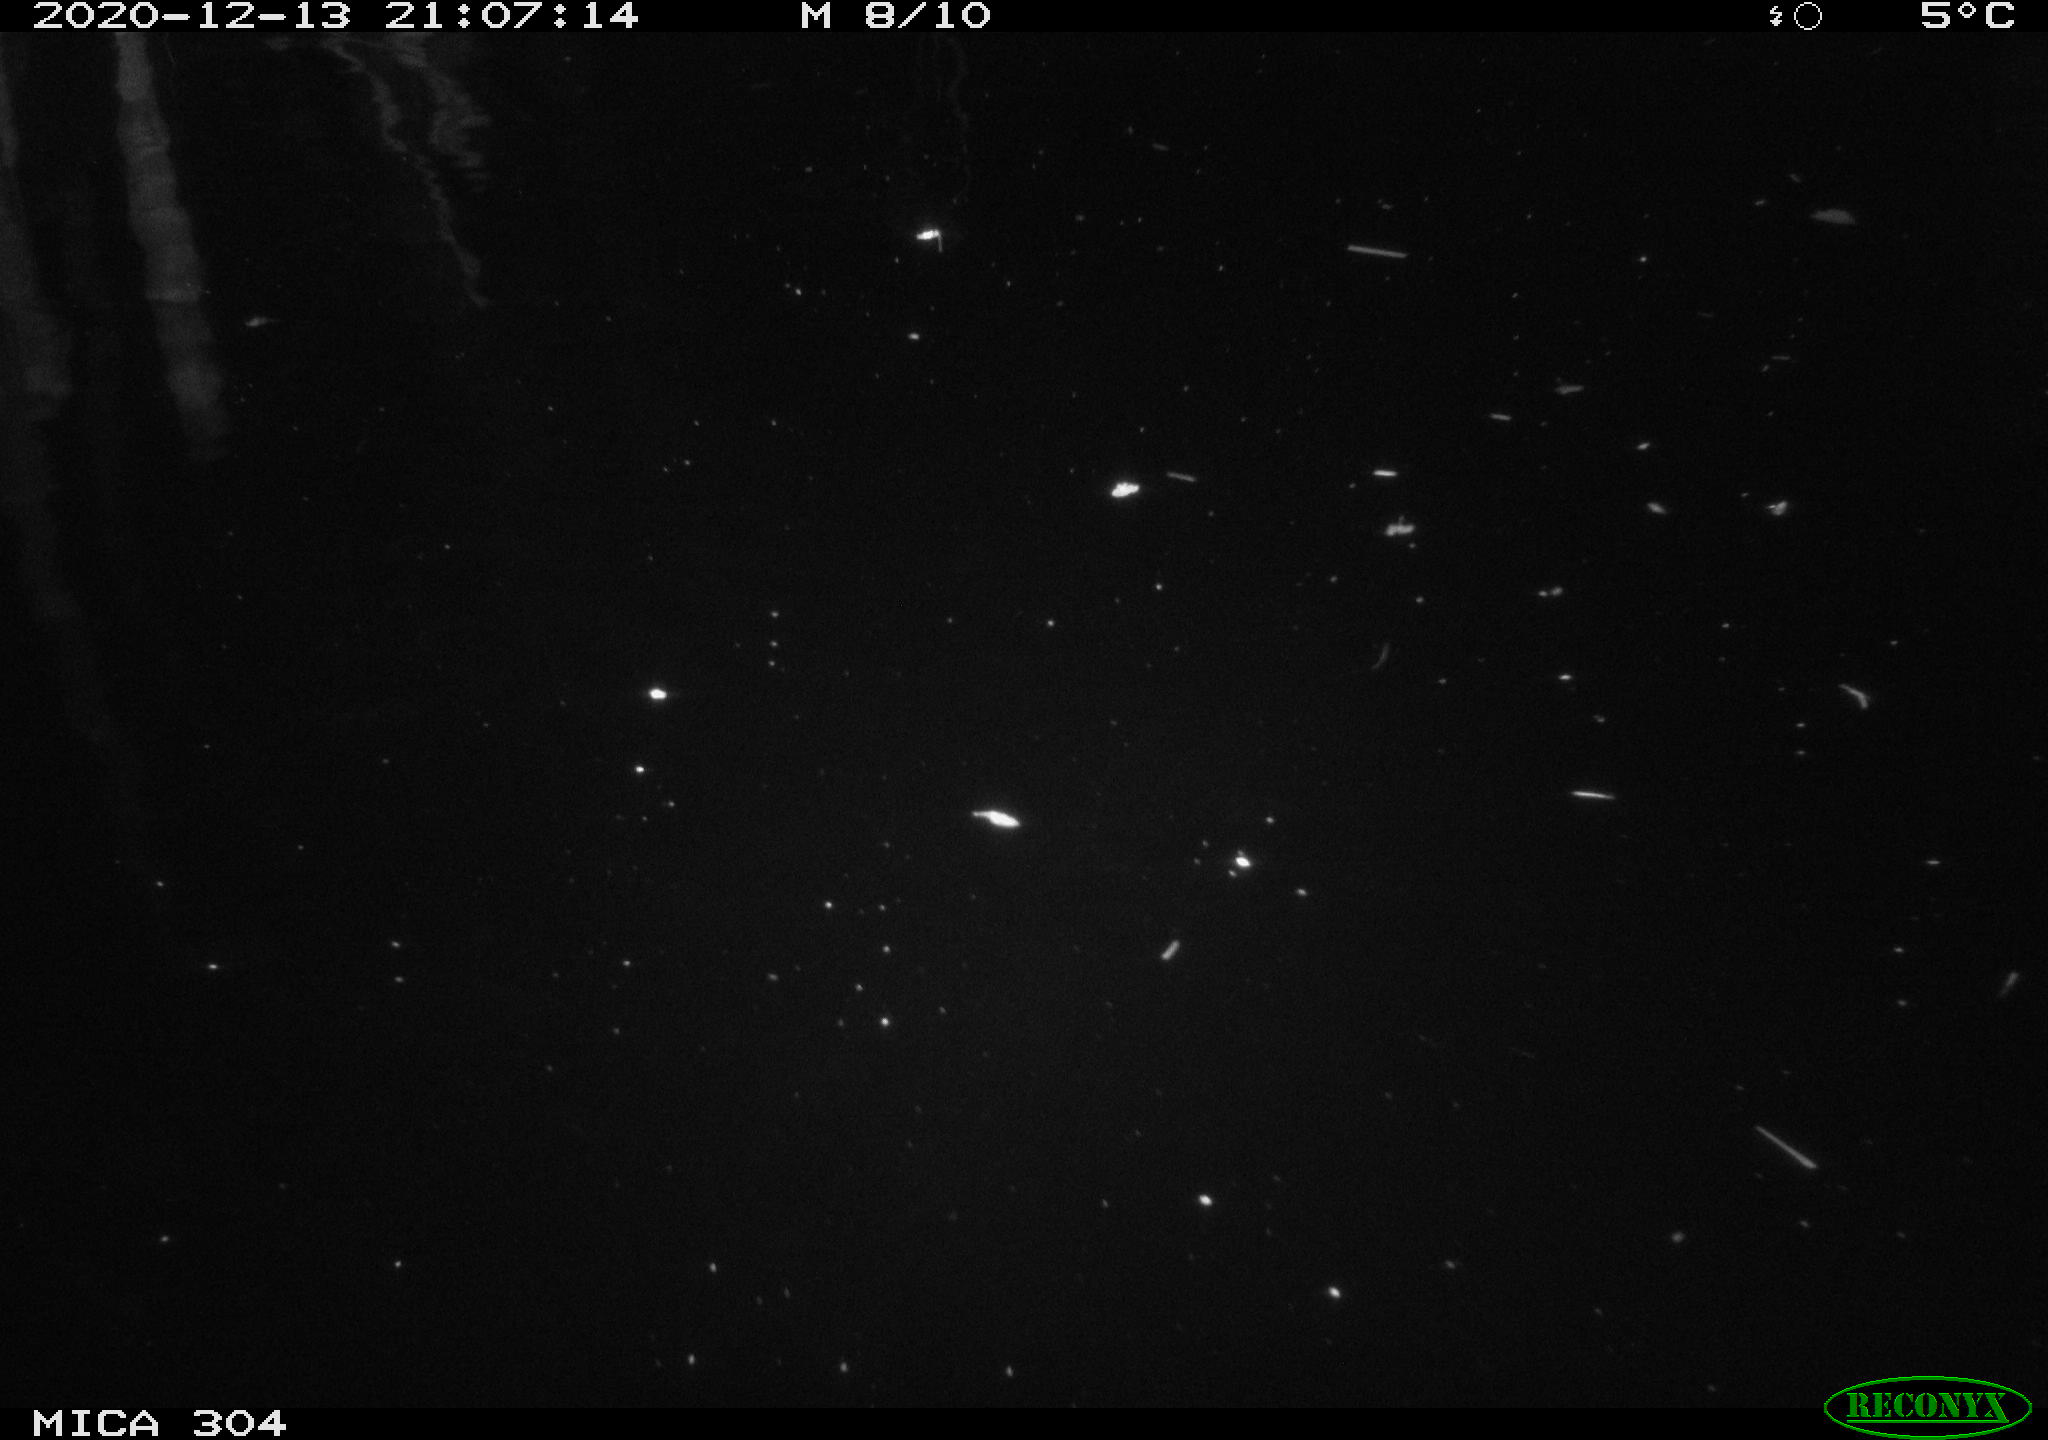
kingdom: Animalia
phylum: Chordata
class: Mammalia
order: Rodentia
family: Cricetidae
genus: Ondatra
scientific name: Ondatra zibethicus
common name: Muskrat
